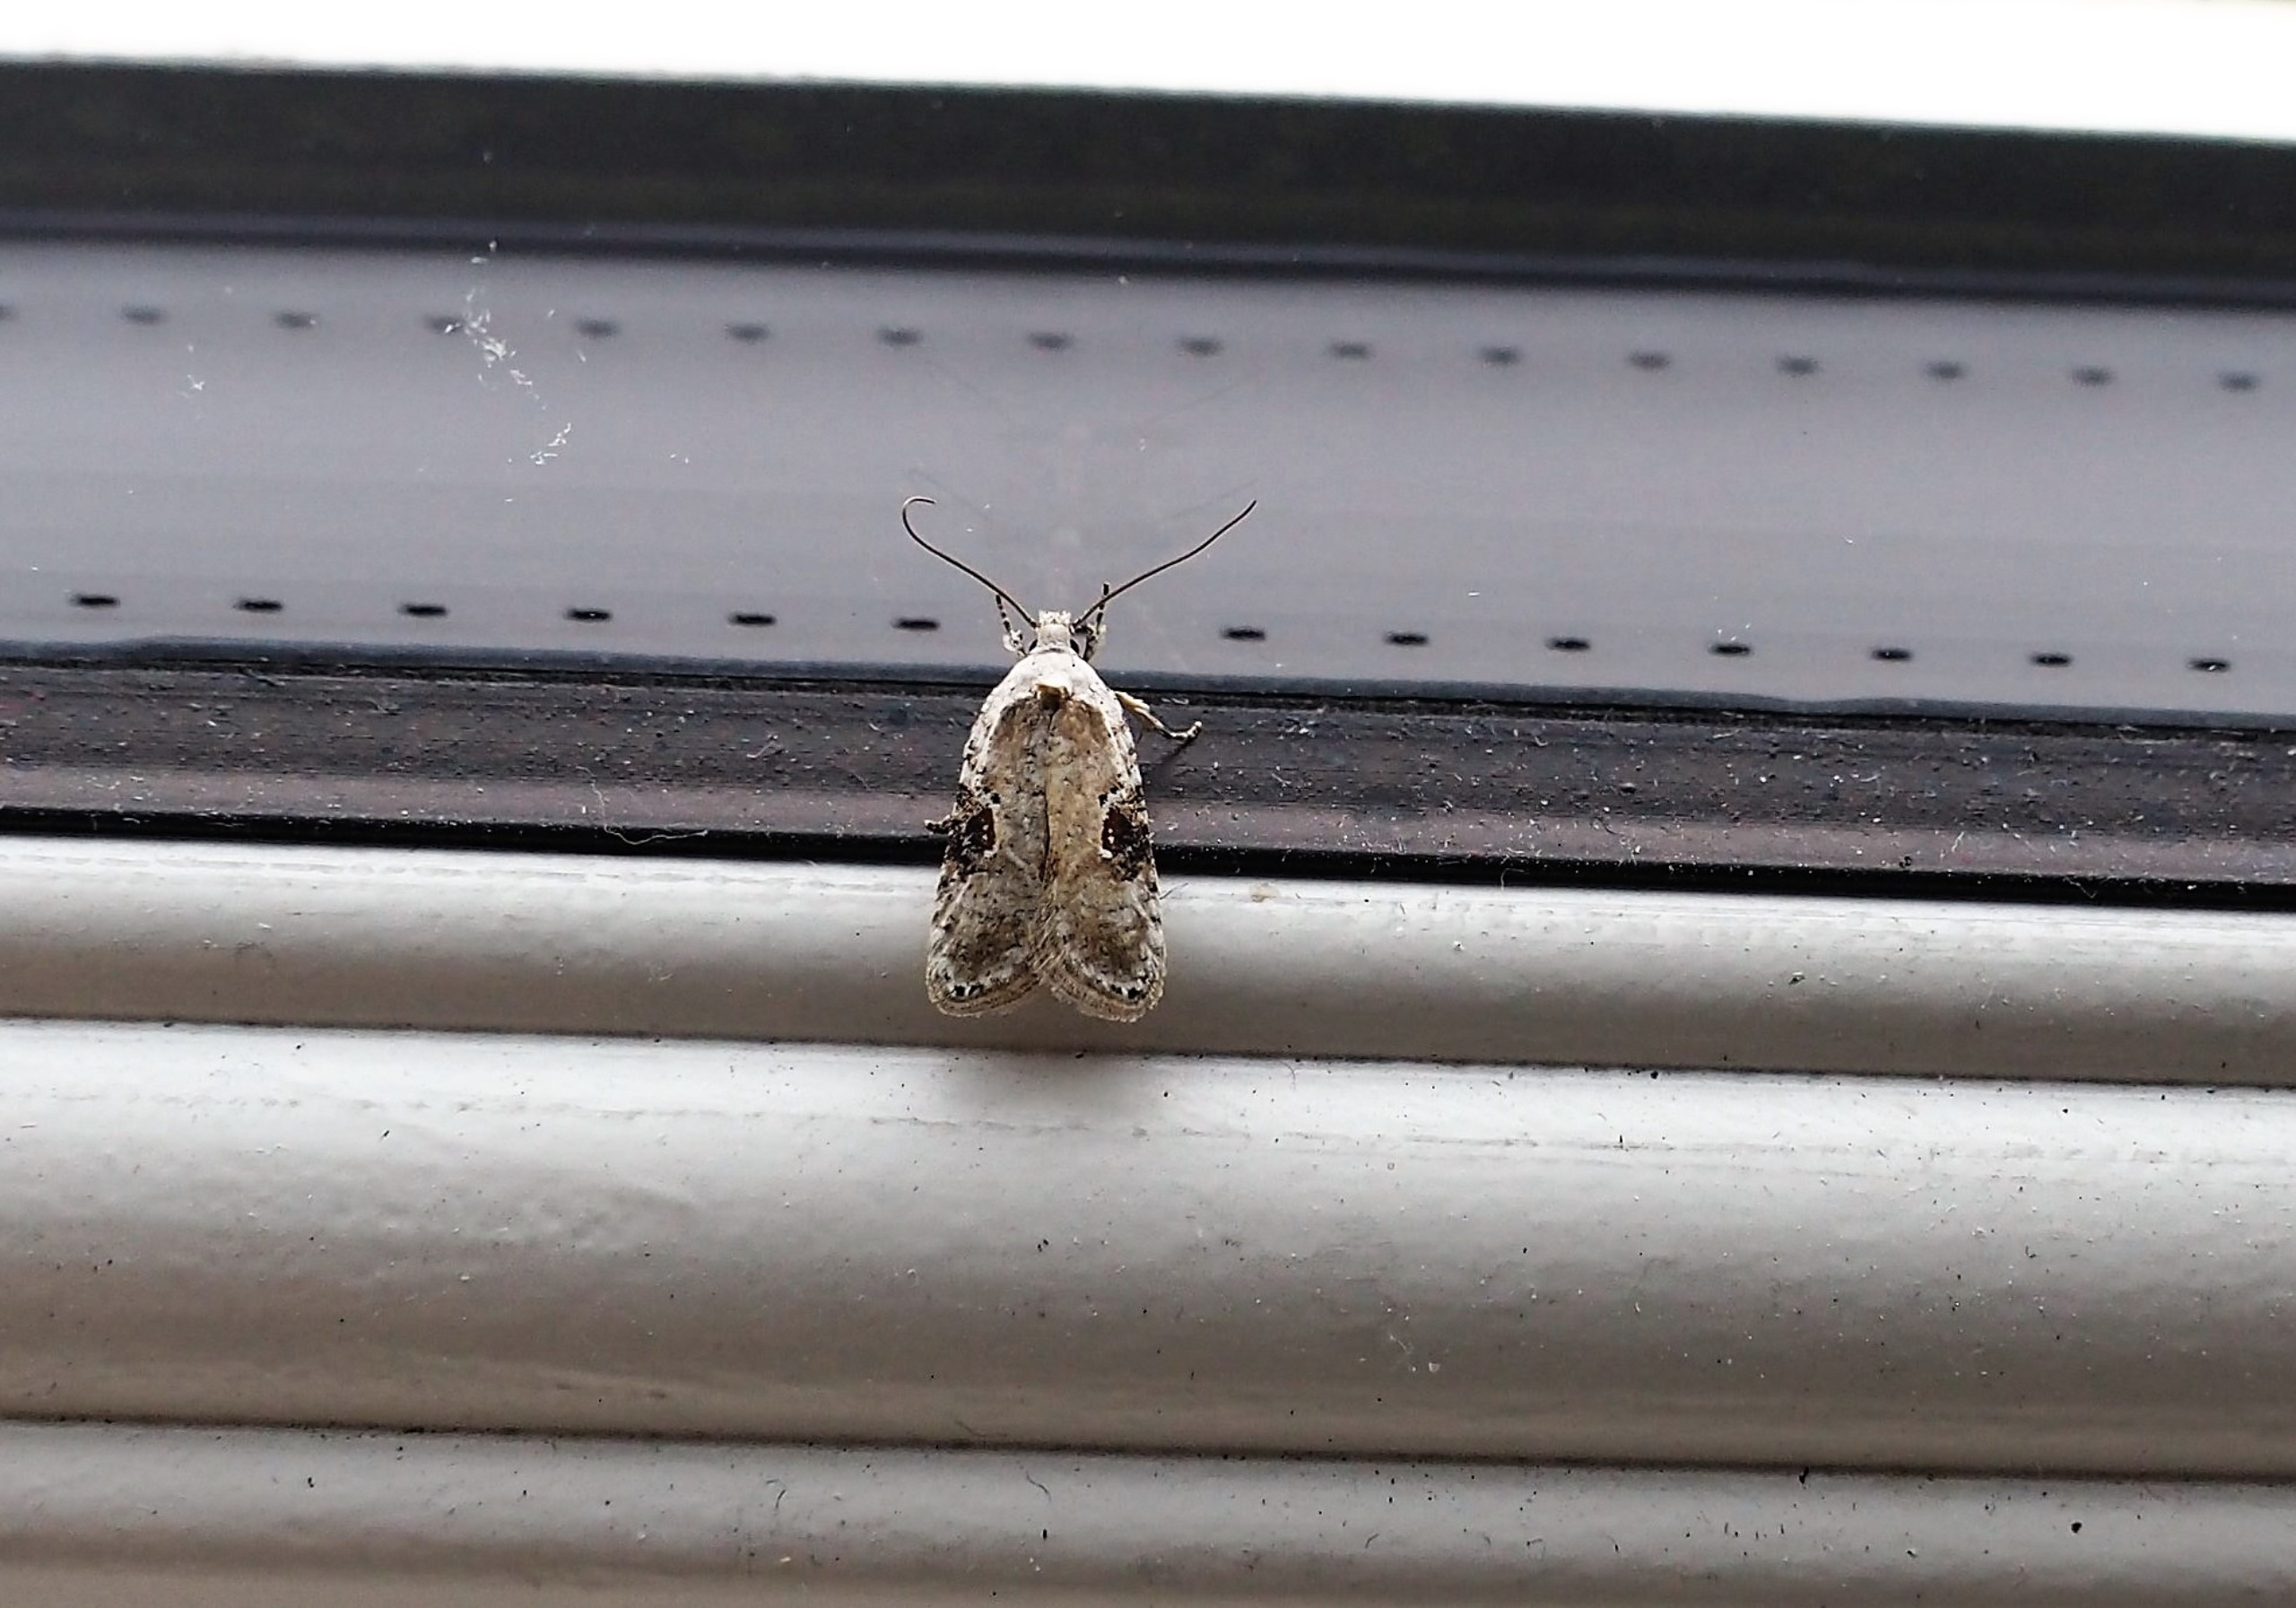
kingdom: Animalia
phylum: Arthropoda
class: Insecta
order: Lepidoptera
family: Depressariidae
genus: Agonopterix
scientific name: Agonopterix alstromeriana
